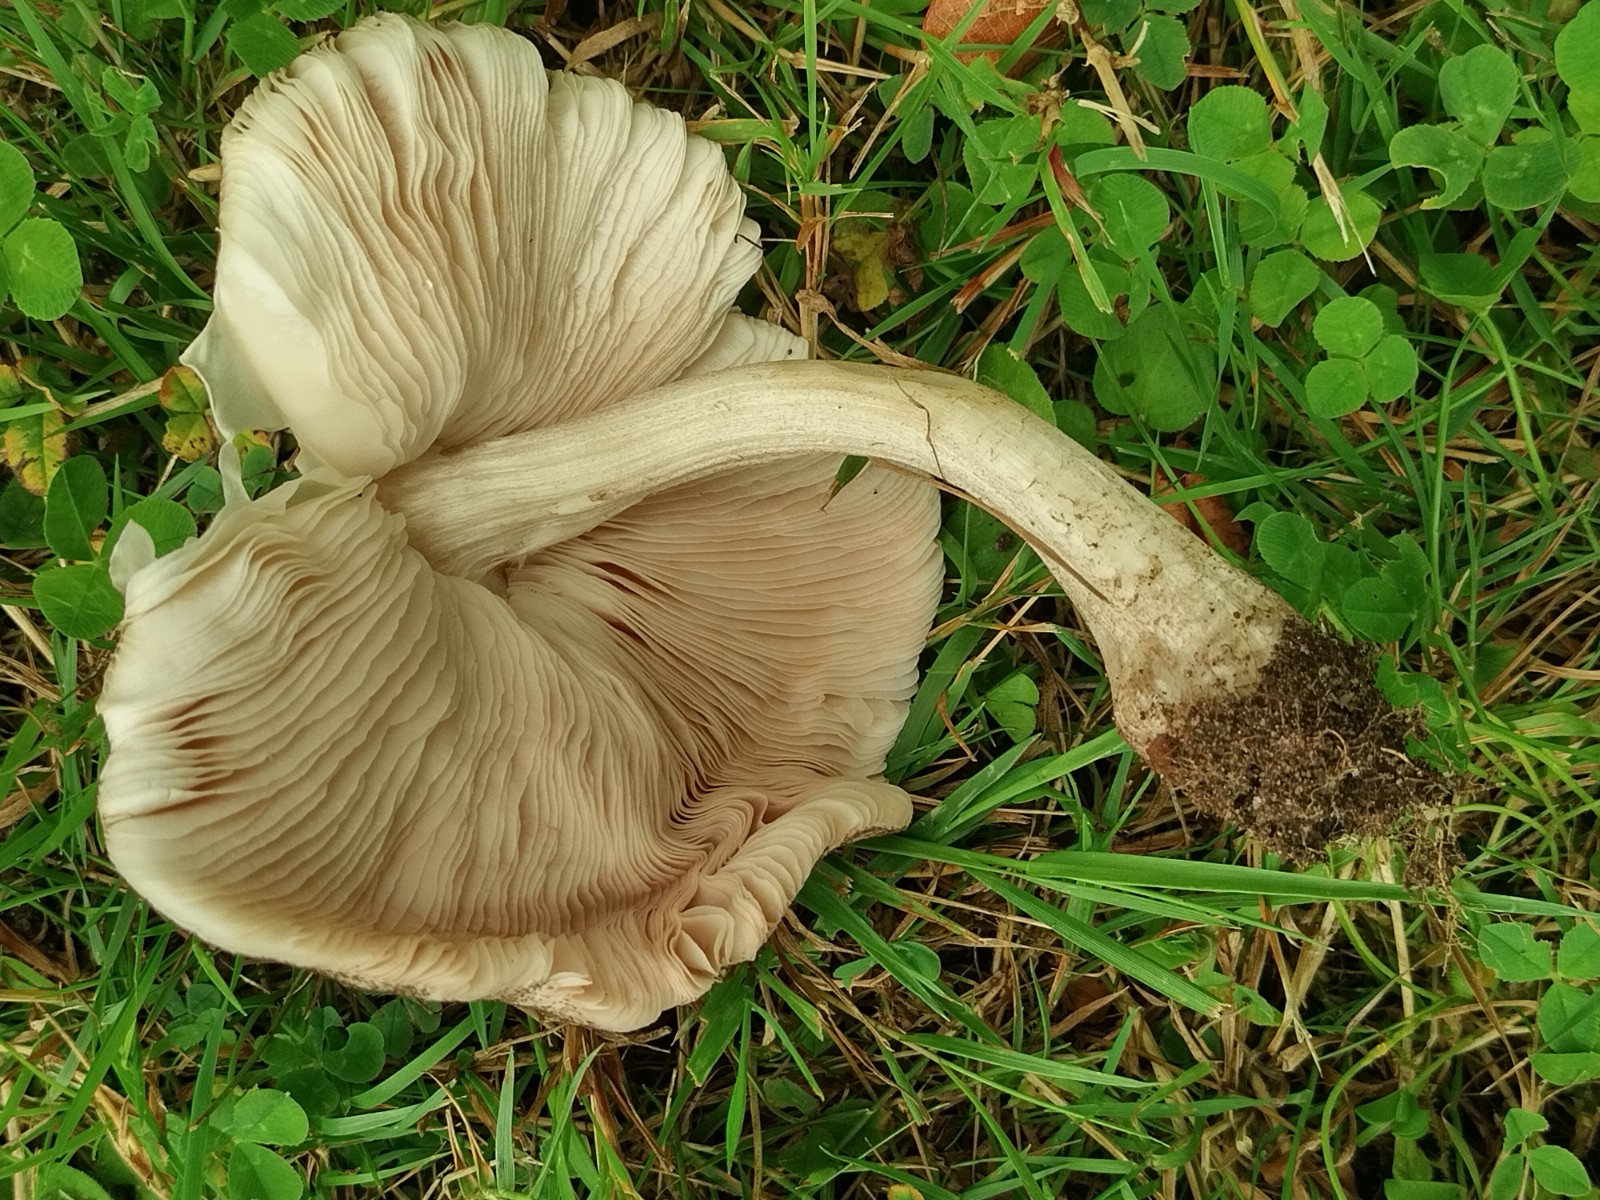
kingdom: Fungi
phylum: Basidiomycota
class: Agaricomycetes
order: Agaricales
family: Pluteaceae
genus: Pluteus
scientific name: Pluteus
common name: gråfibret skærmhat
